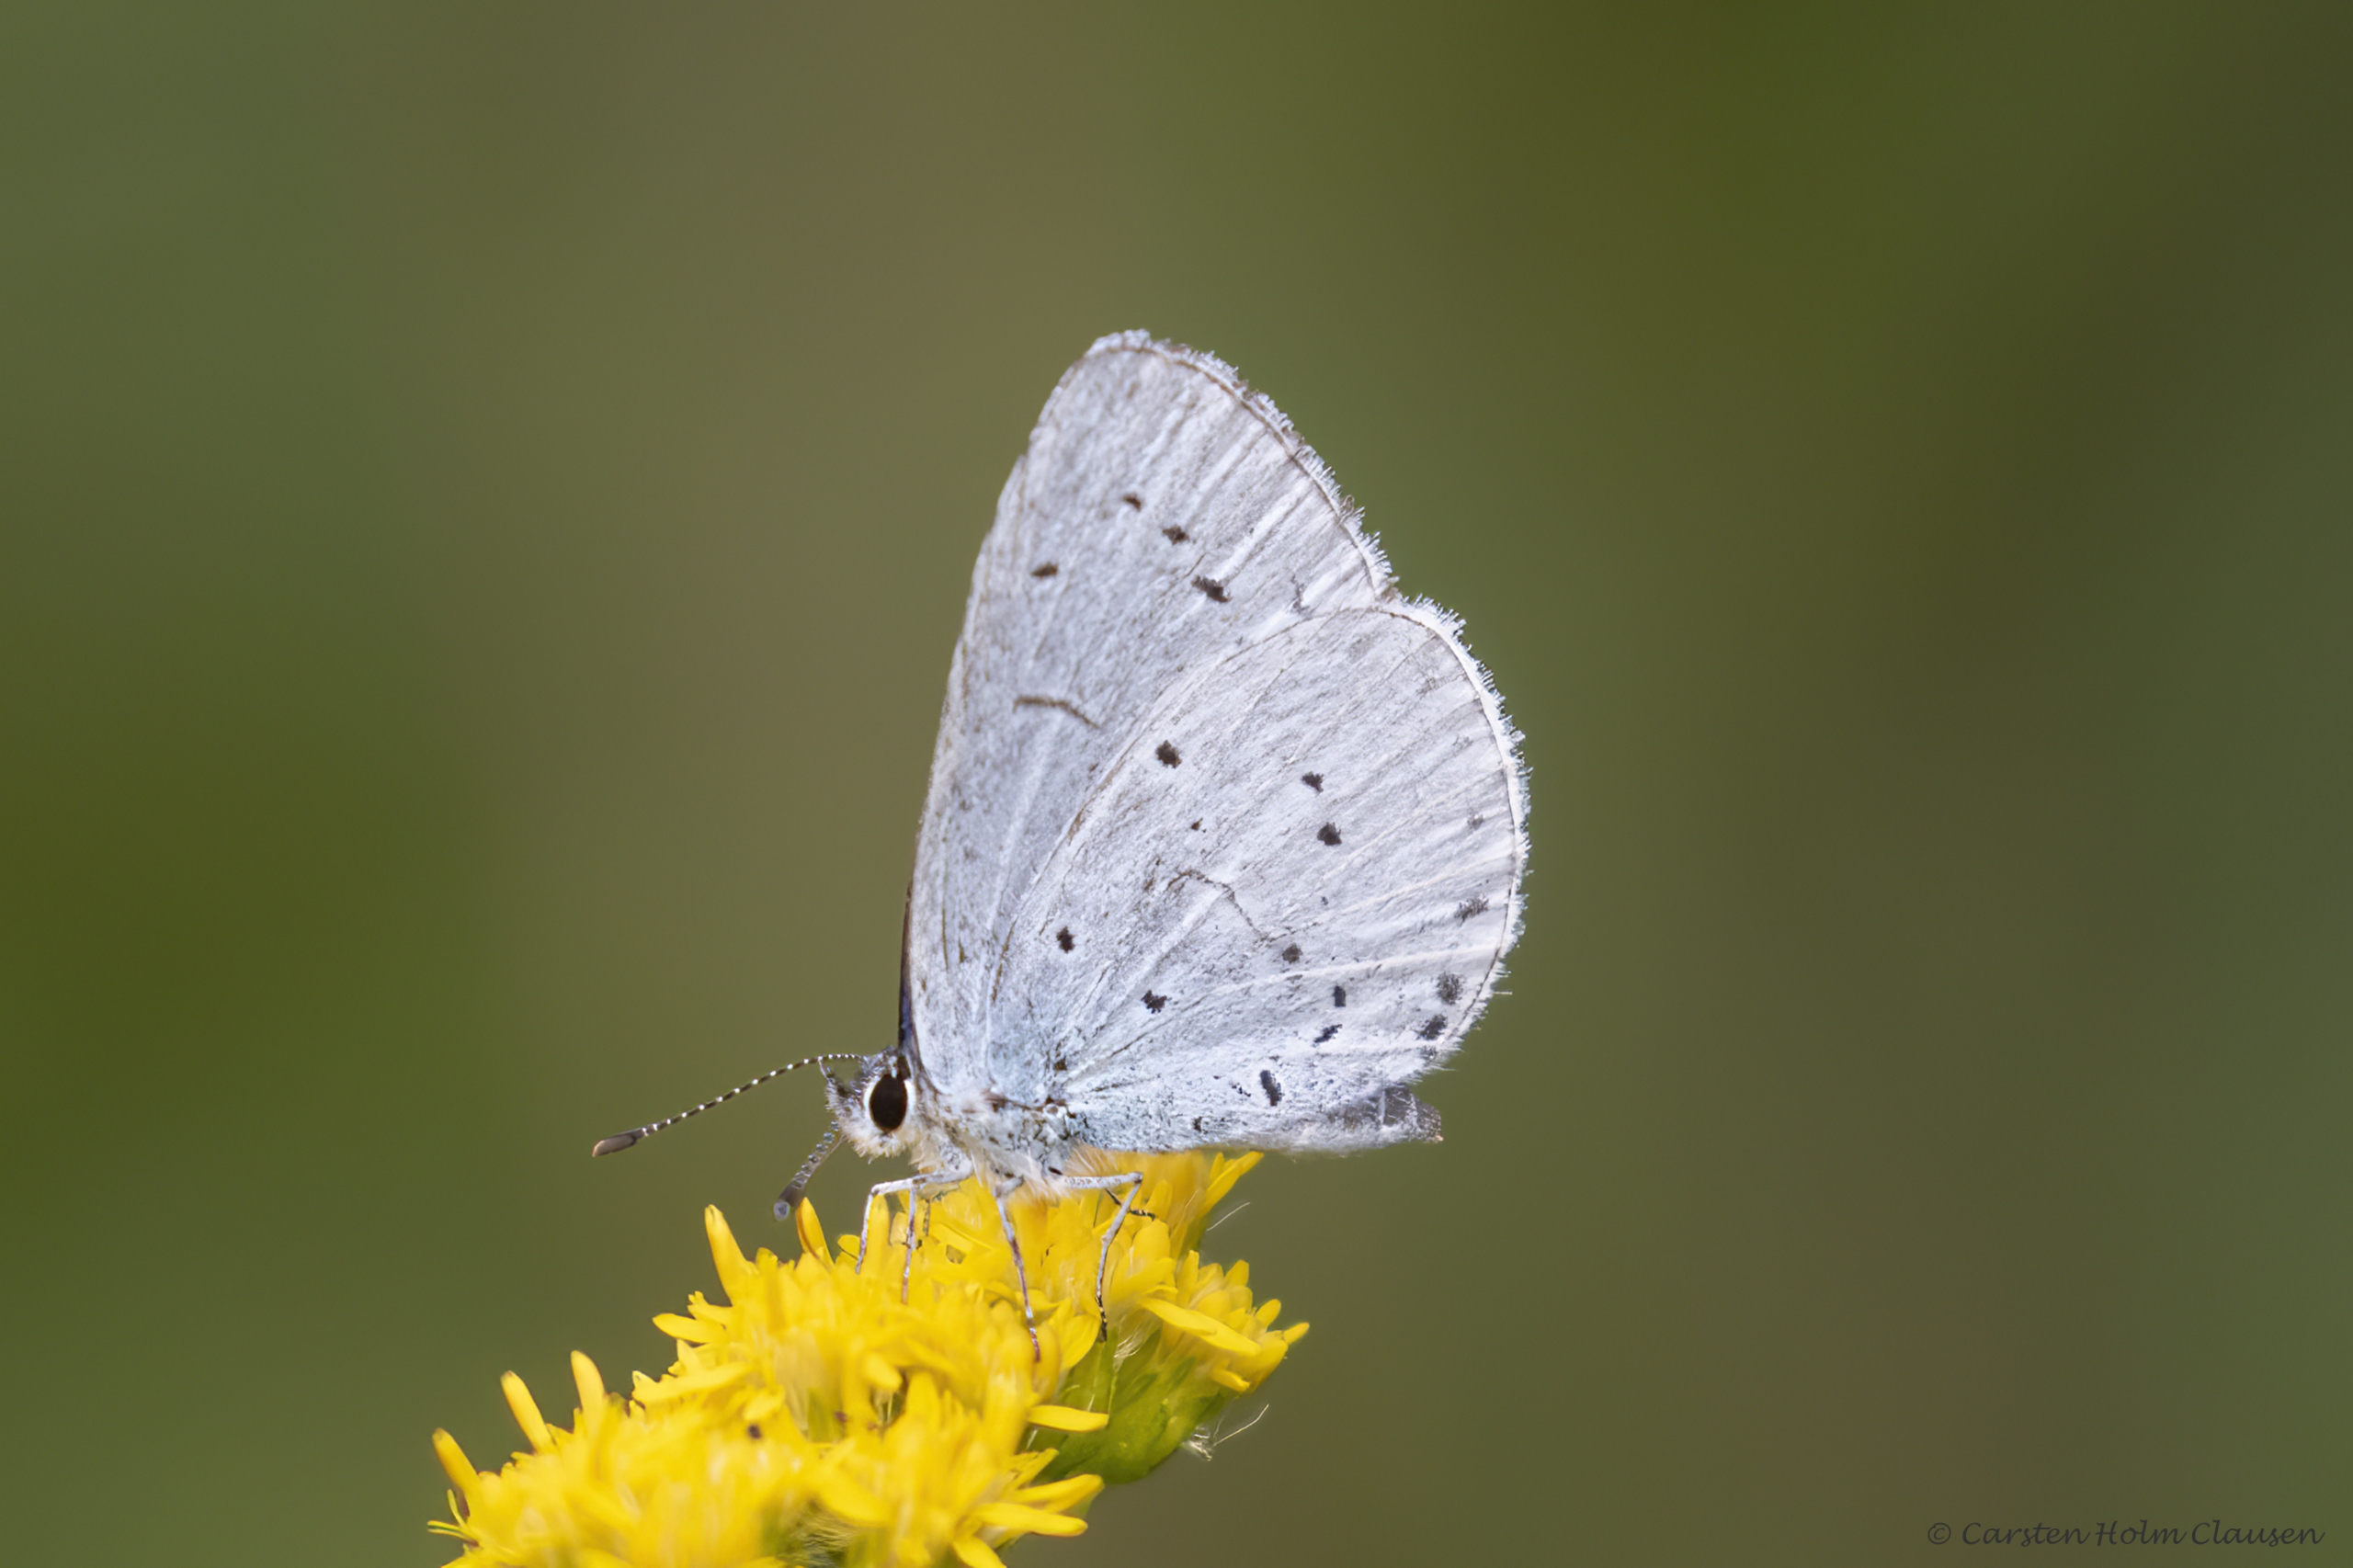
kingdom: Animalia
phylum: Arthropoda
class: Insecta
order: Lepidoptera
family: Lycaenidae
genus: Celastrina
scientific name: Celastrina argiolus
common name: Skovblåfugl
